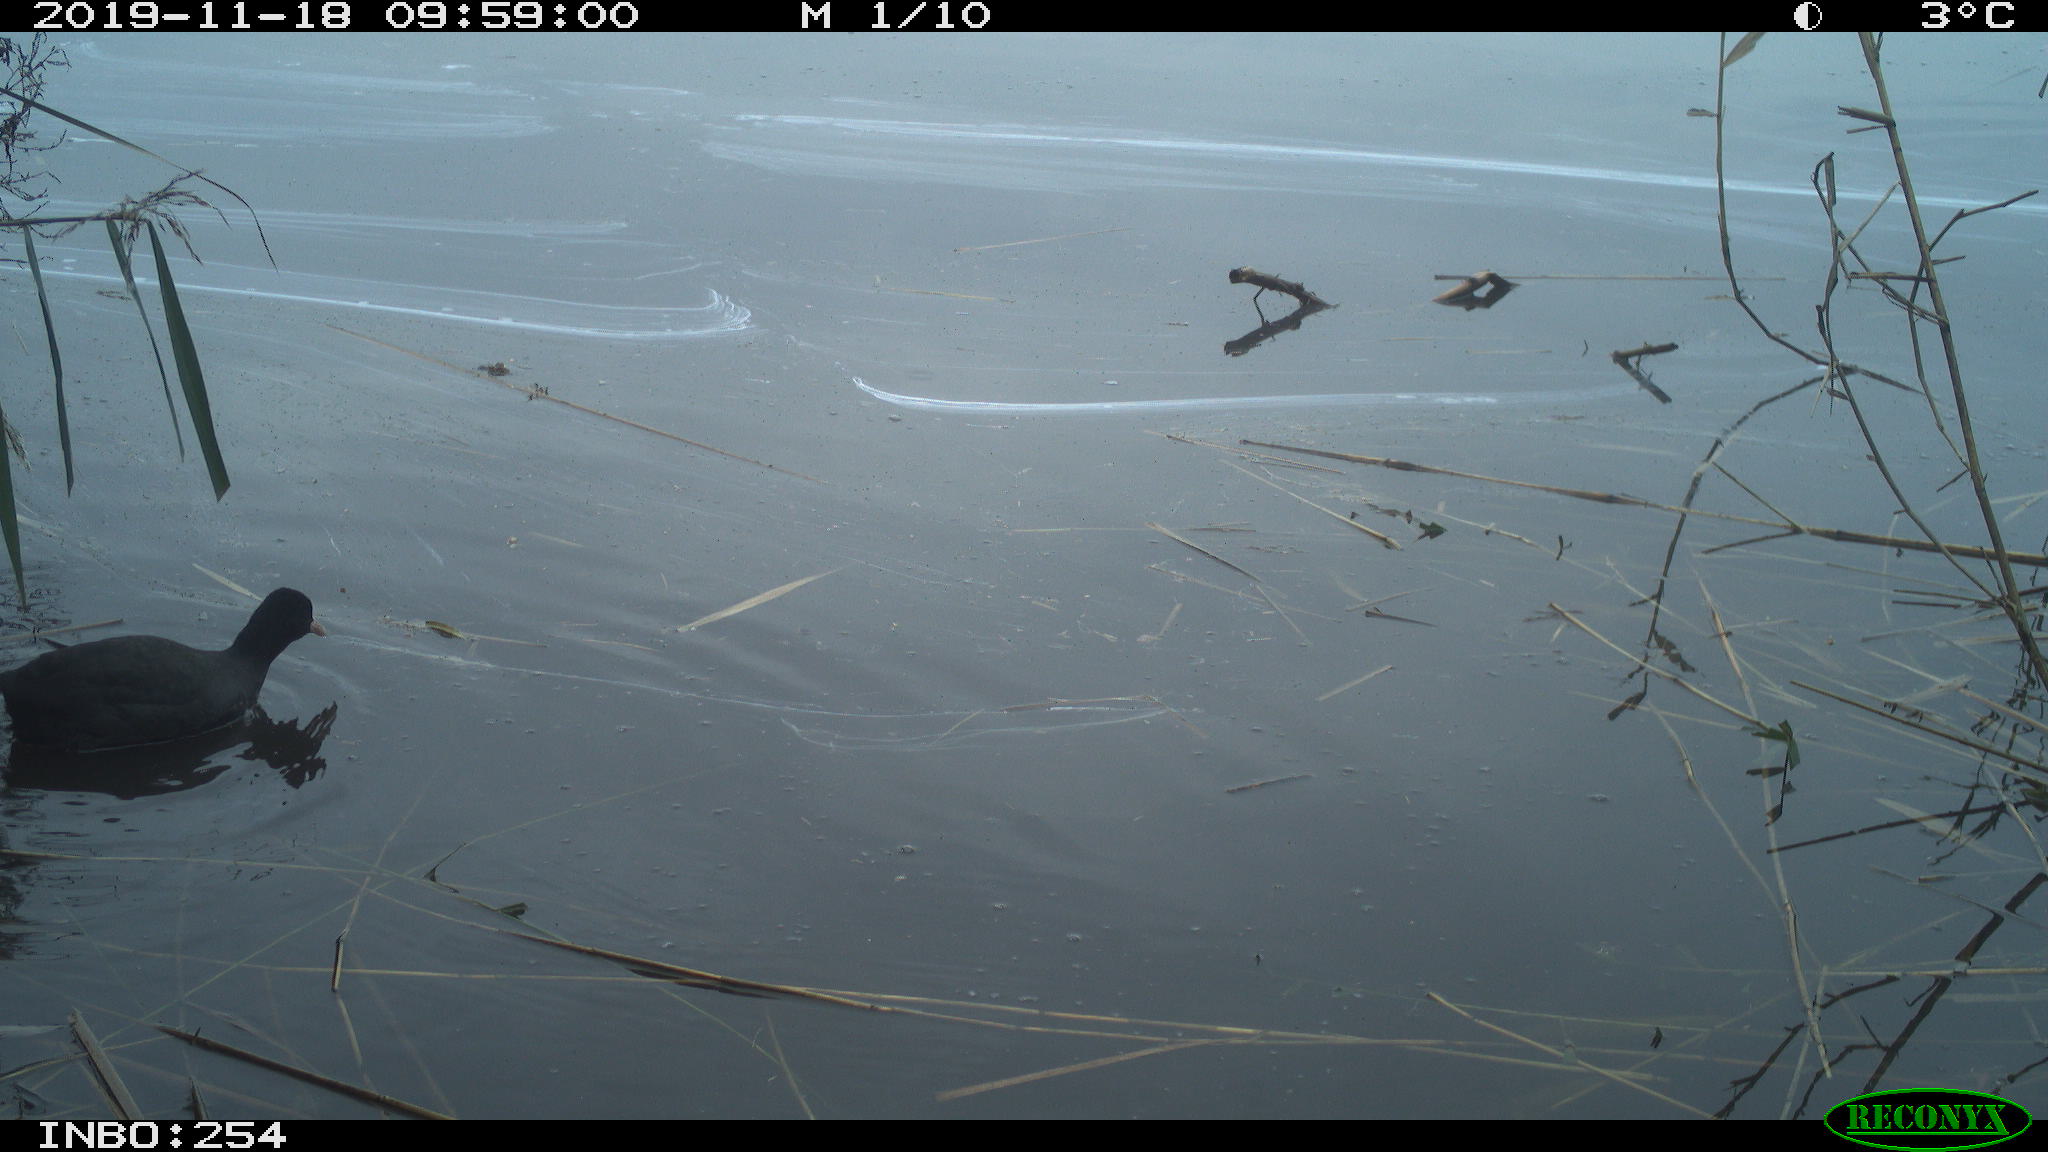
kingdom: Animalia
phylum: Chordata
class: Aves
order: Gruiformes
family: Rallidae
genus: Fulica
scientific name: Fulica atra
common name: Eurasian coot
